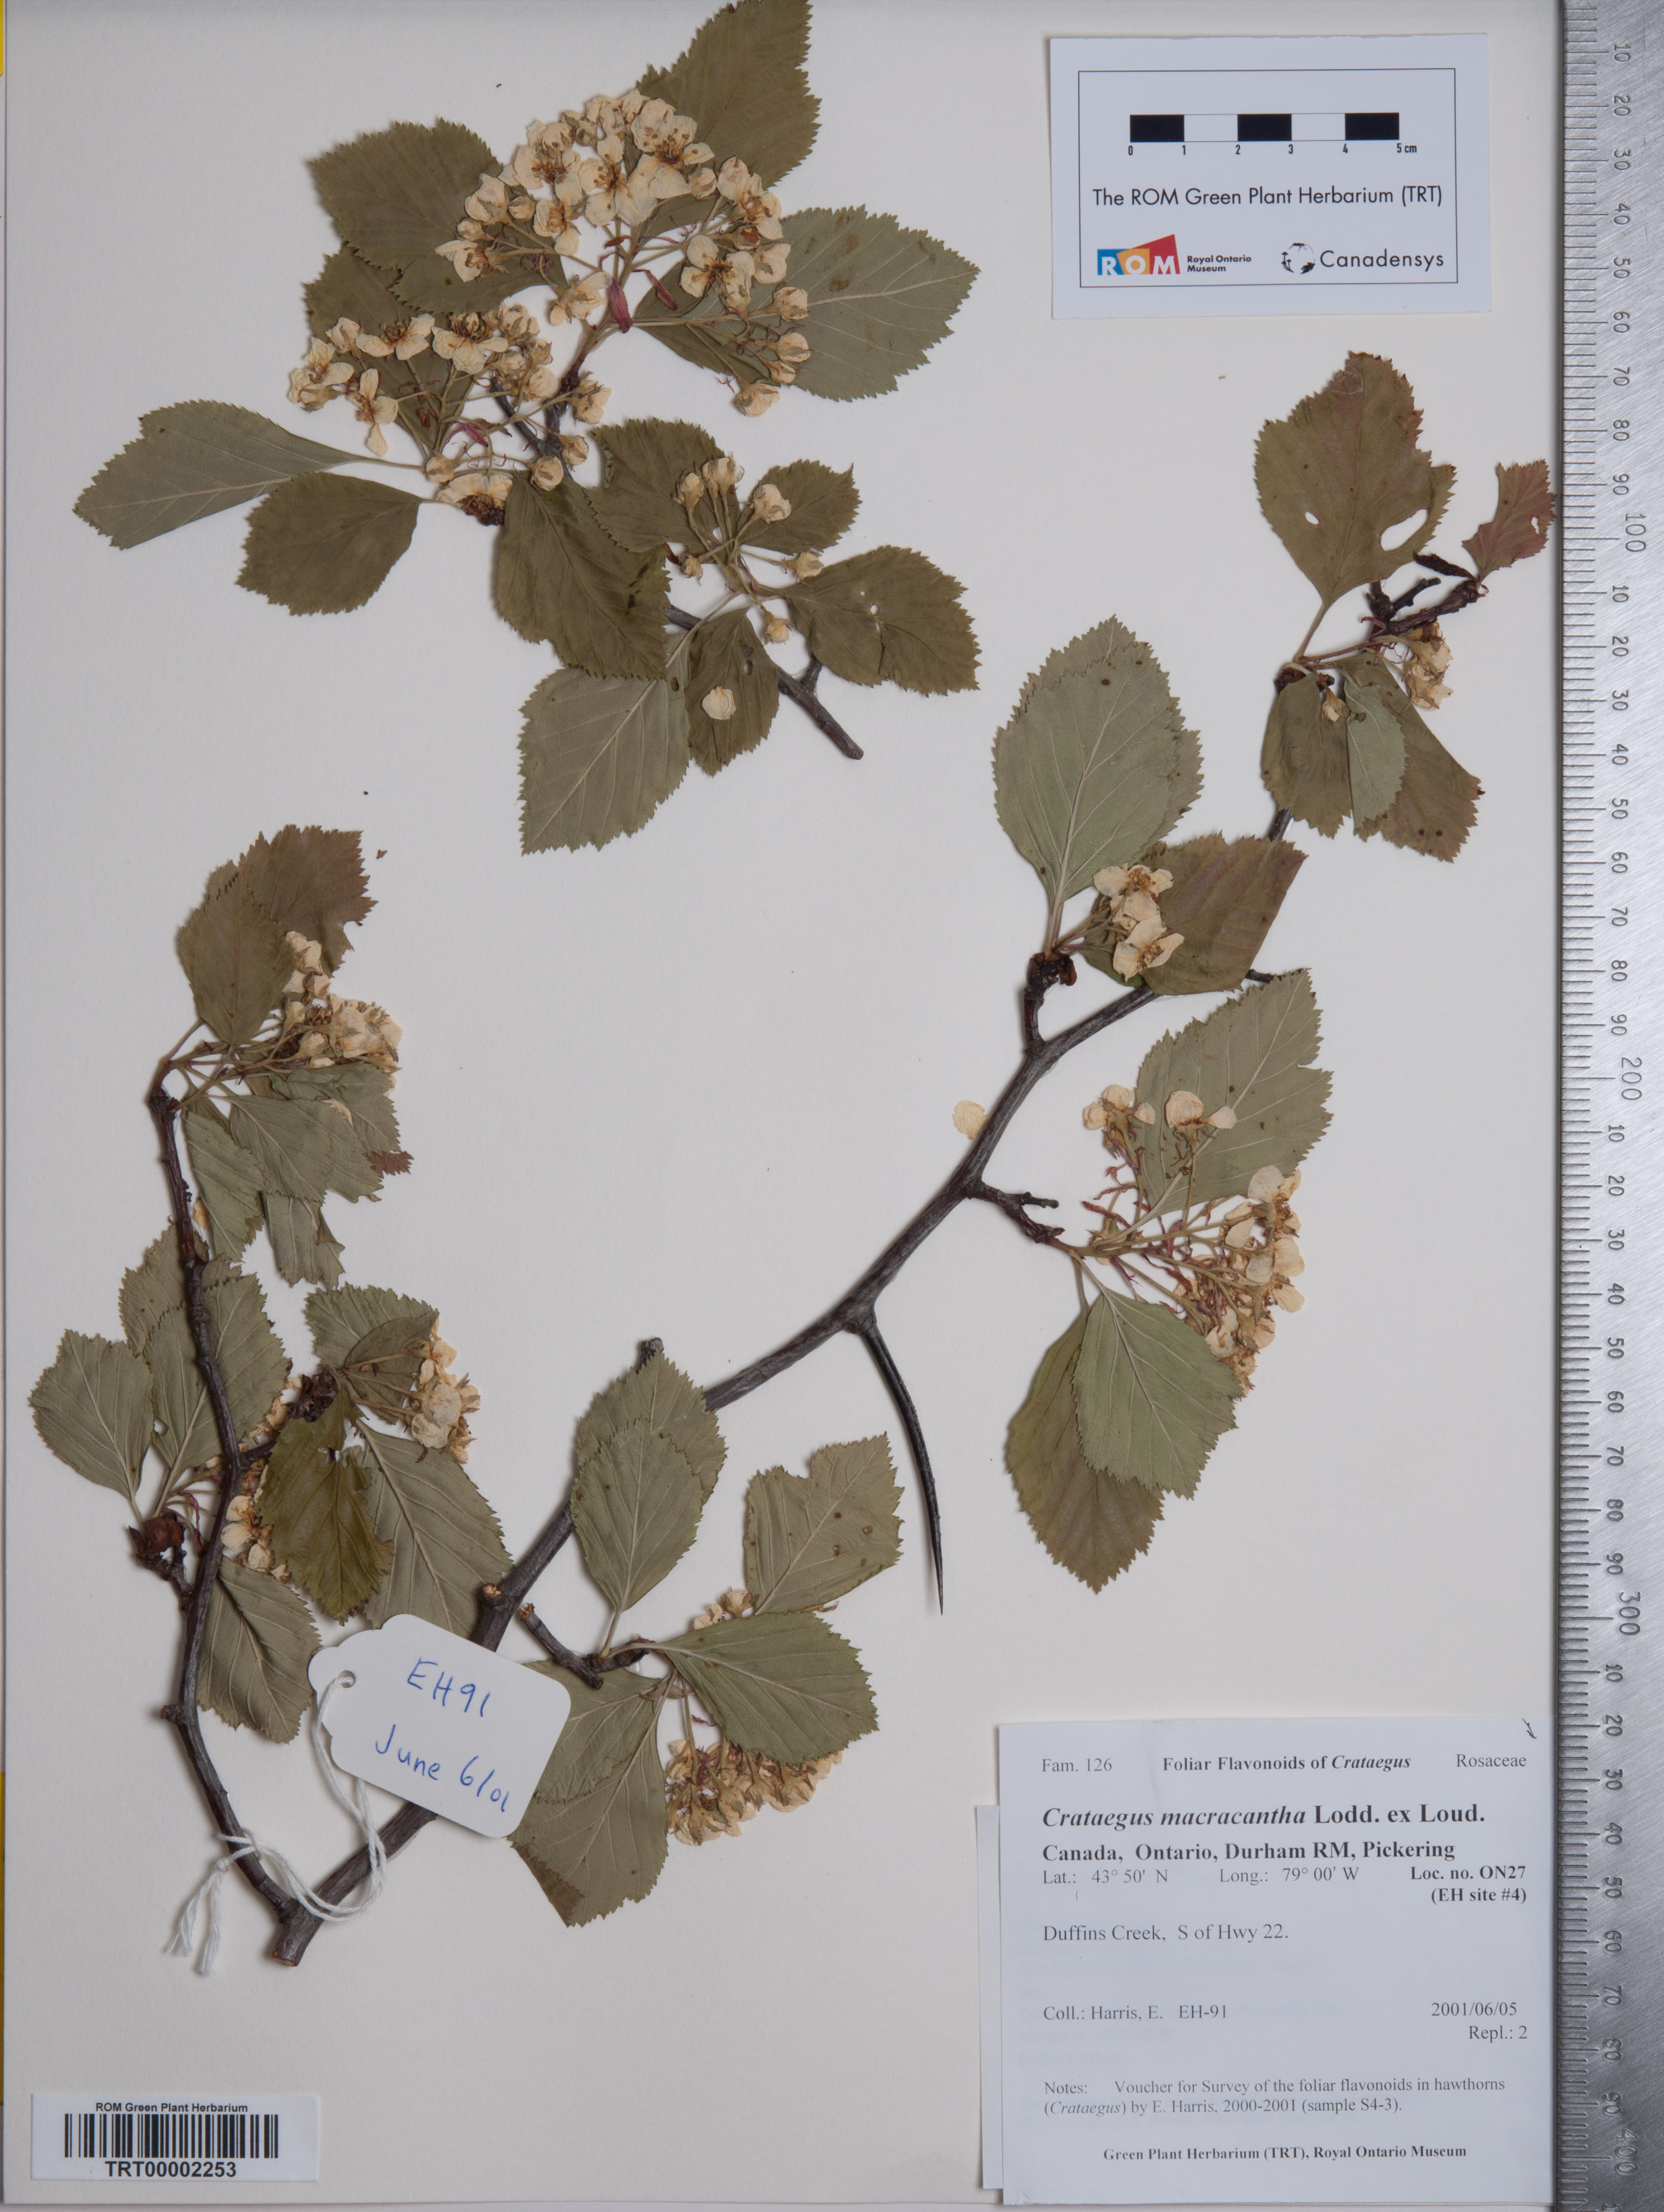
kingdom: Plantae
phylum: Tracheophyta
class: Magnoliopsida
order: Rosales
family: Rosaceae
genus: Crataegus
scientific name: Crataegus macracantha
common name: Large-thorn hawthorn
